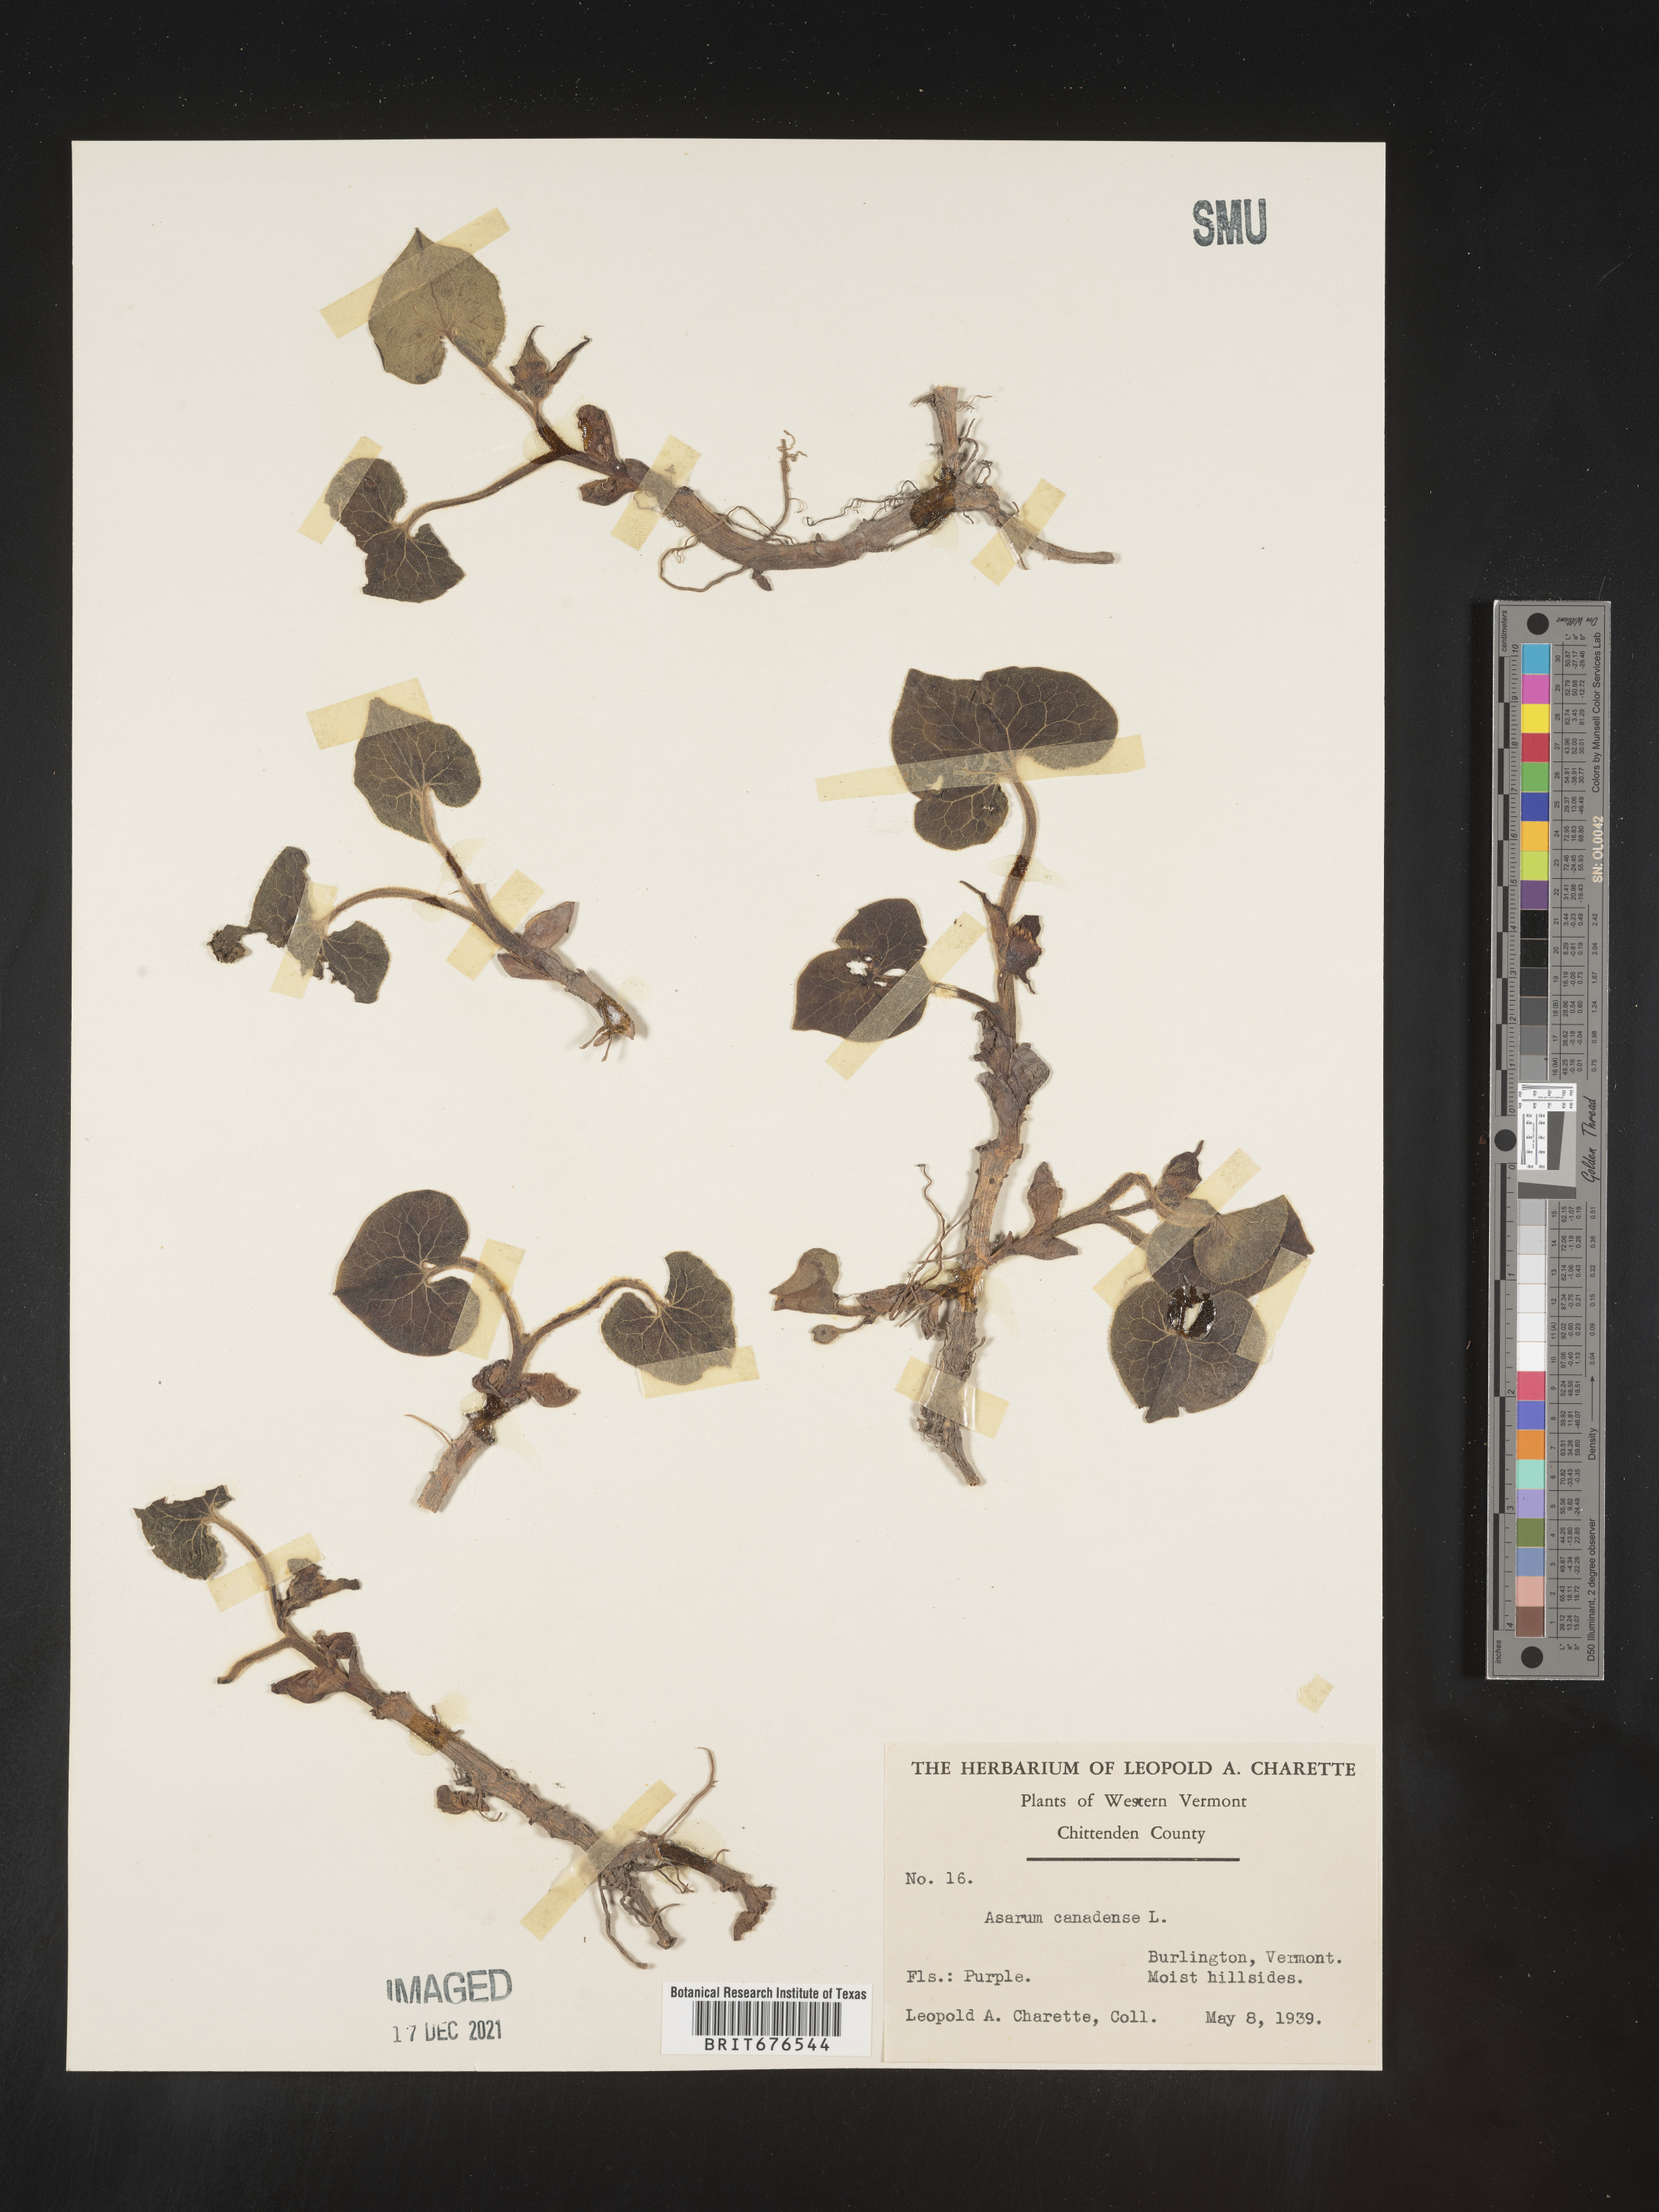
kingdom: Plantae
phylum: Tracheophyta
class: Magnoliopsida
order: Piperales
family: Aristolochiaceae
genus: Asarum
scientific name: Asarum canadense
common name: Wild ginger
